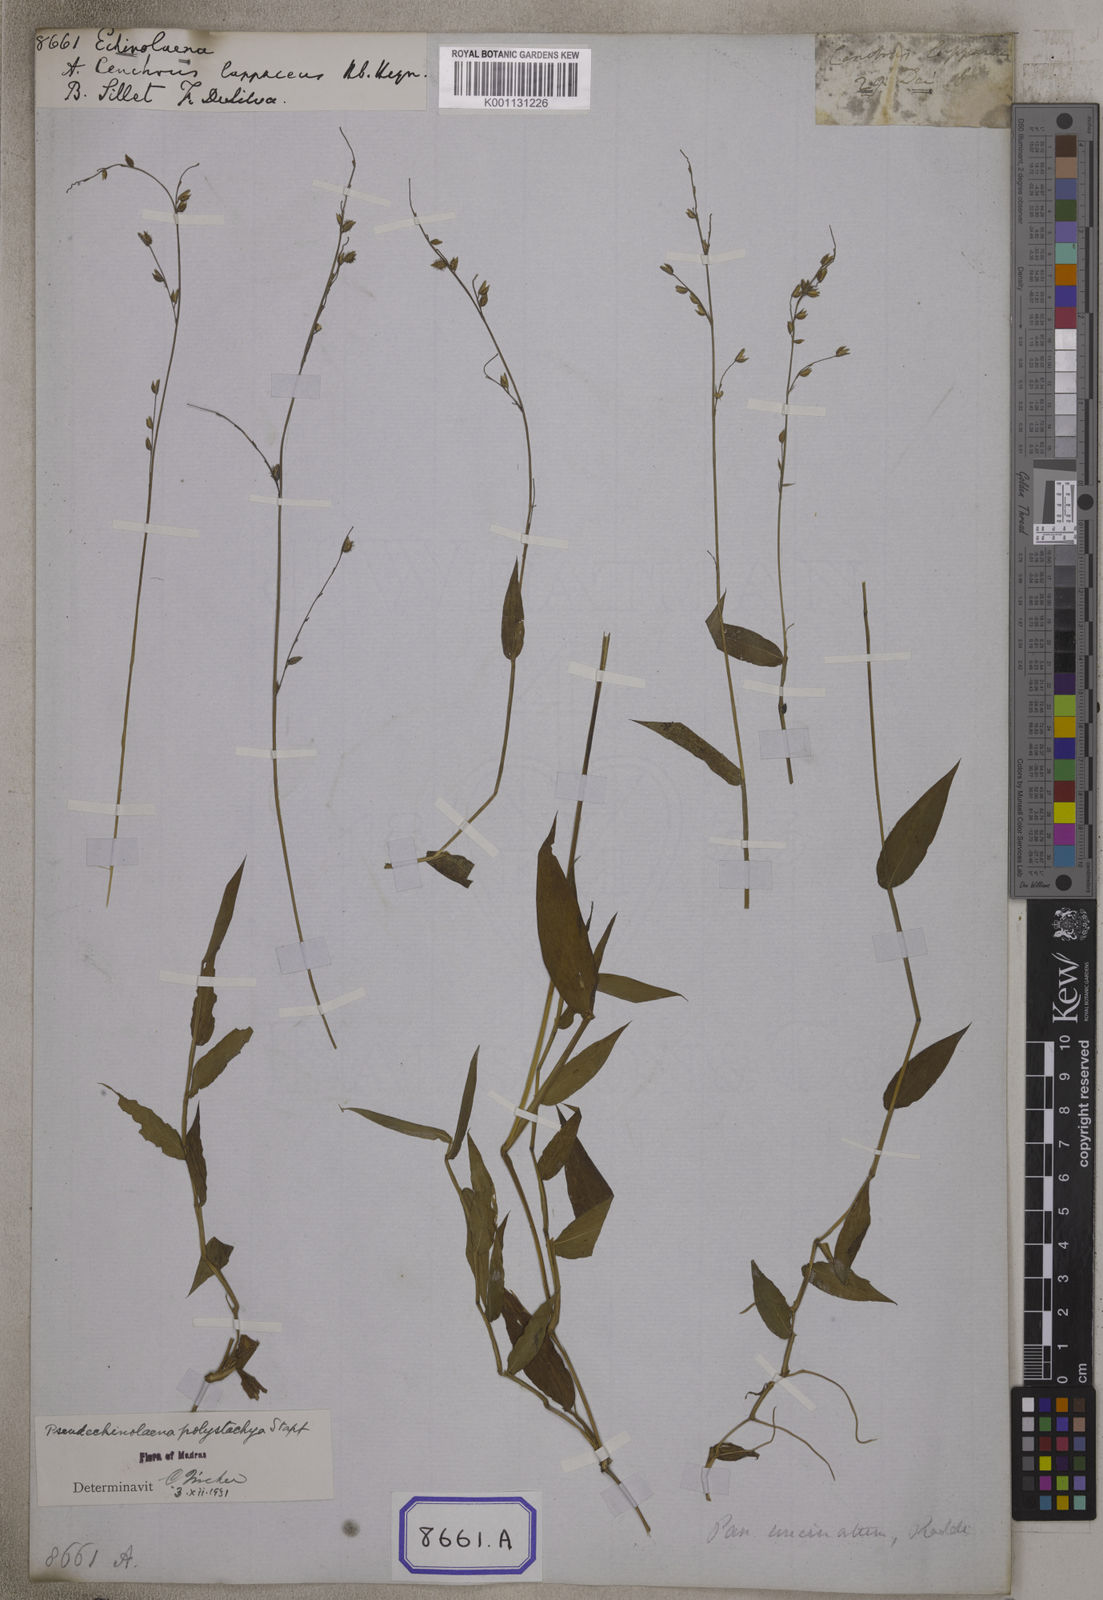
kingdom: Plantae
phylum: Tracheophyta
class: Liliopsida
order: Poales
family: Poaceae
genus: Echinolaena
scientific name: Echinolaena
